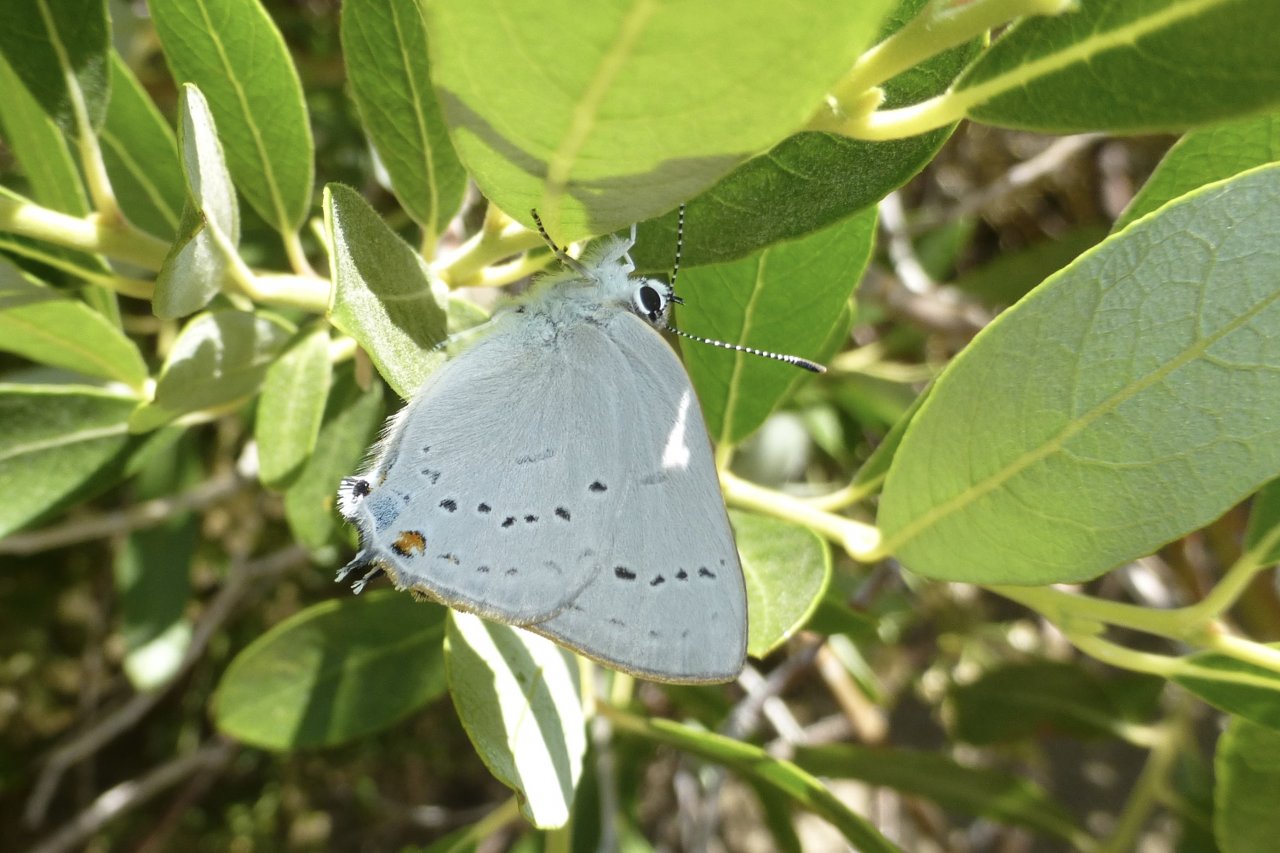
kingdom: Animalia
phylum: Arthropoda
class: Insecta
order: Lepidoptera
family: Lycaenidae
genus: Strymon
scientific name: Strymon sylvinus
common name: Sylvan Hairstreak
